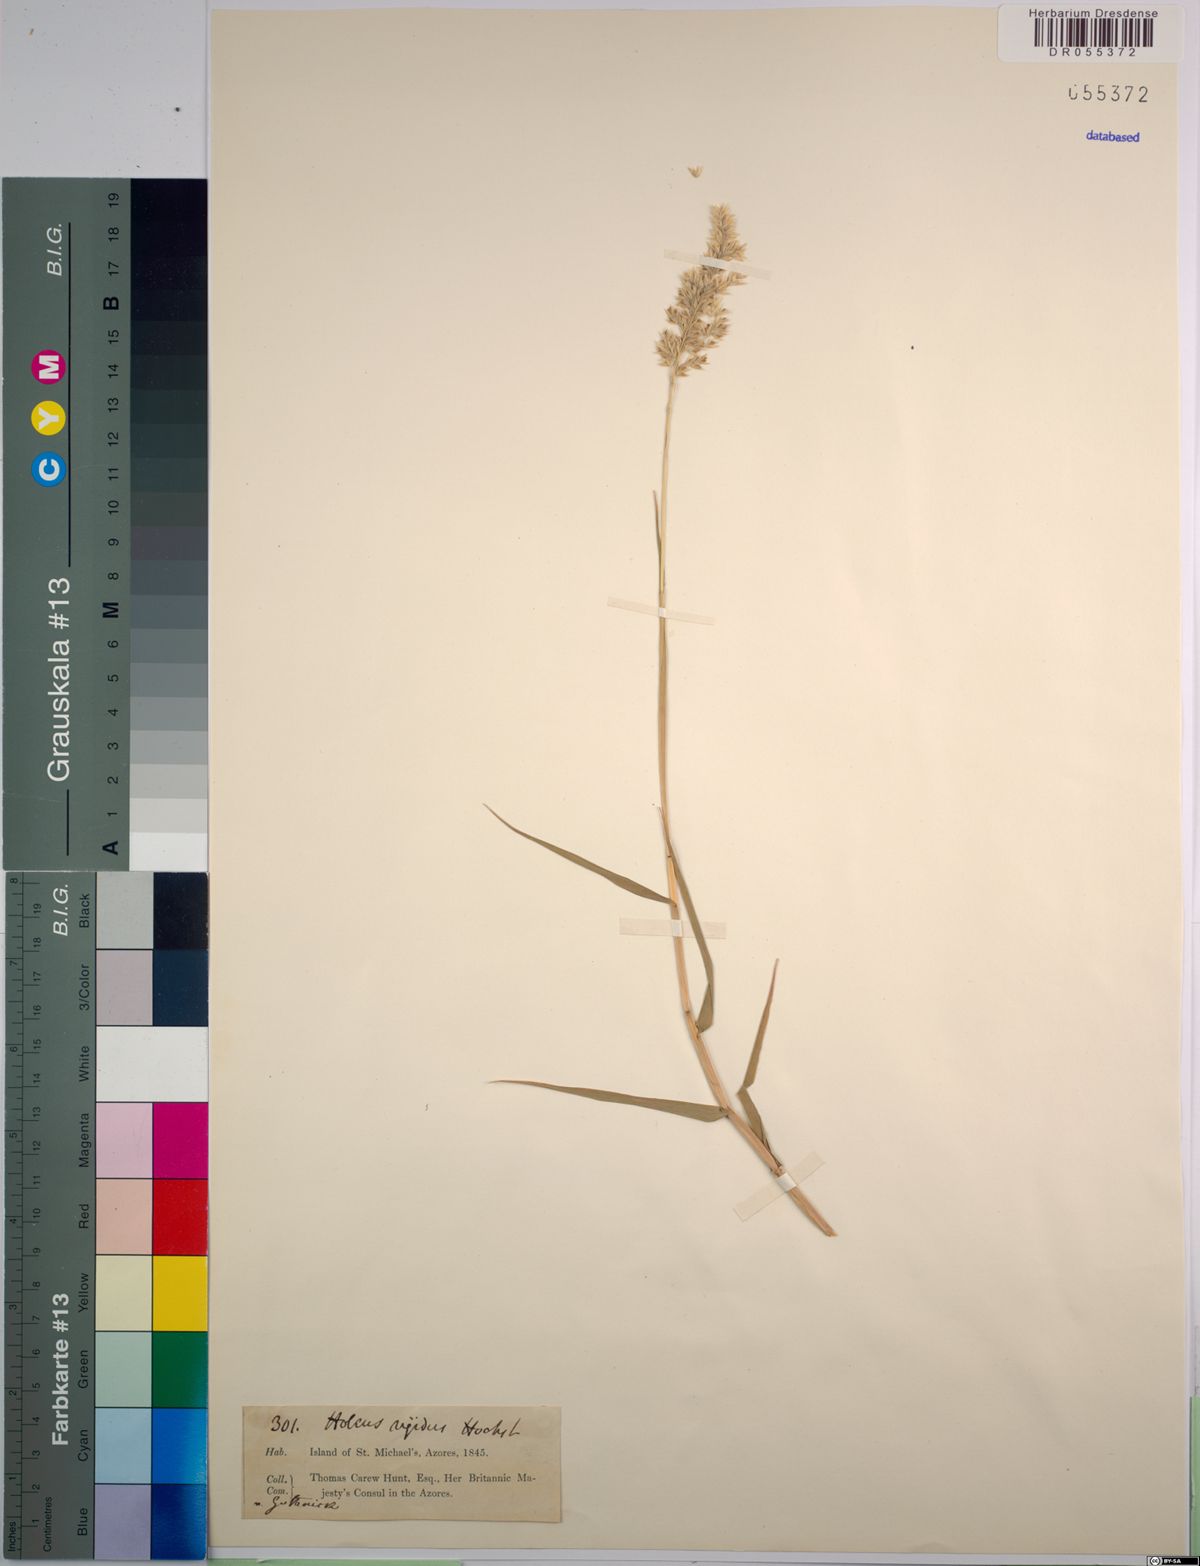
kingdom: Plantae
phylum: Tracheophyta
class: Liliopsida
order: Poales
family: Poaceae
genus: Holcus
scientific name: Holcus rigidus
